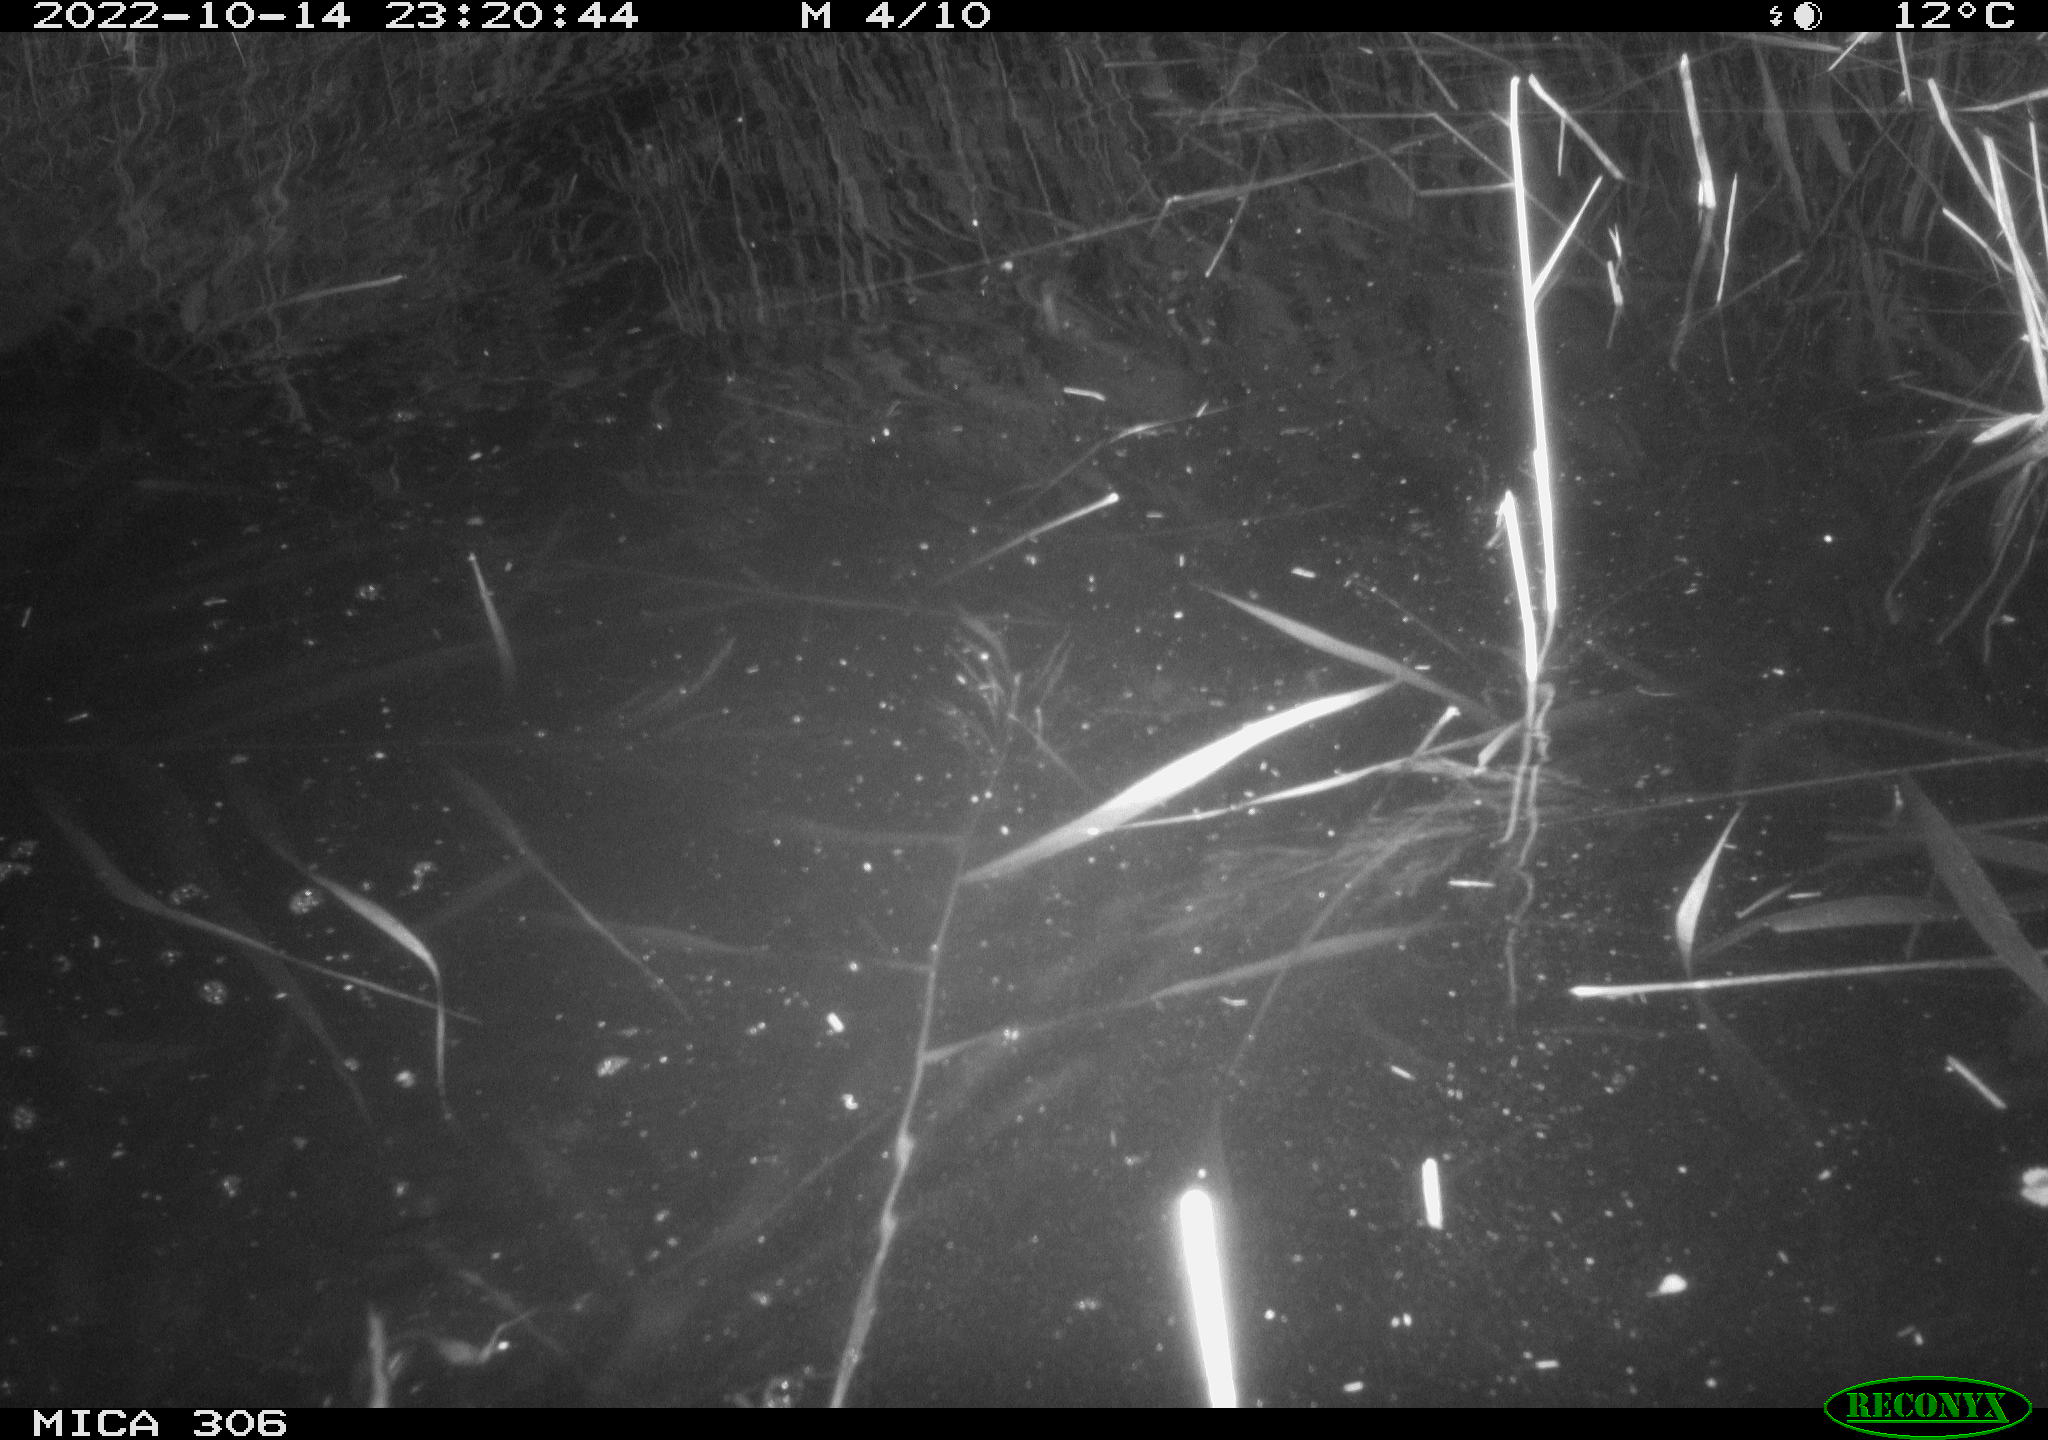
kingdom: Animalia
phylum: Chordata
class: Mammalia
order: Rodentia
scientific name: Rodentia
